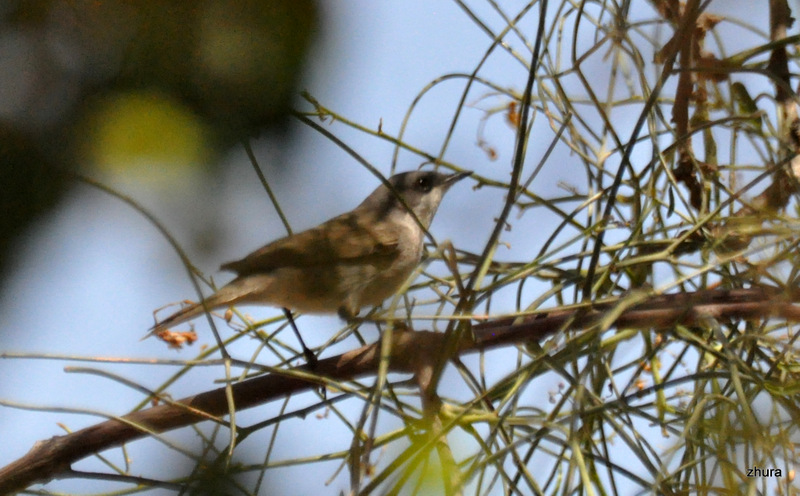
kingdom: Animalia
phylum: Chordata
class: Aves
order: Passeriformes
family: Sylviidae
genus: Sylvia
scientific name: Sylvia communis
